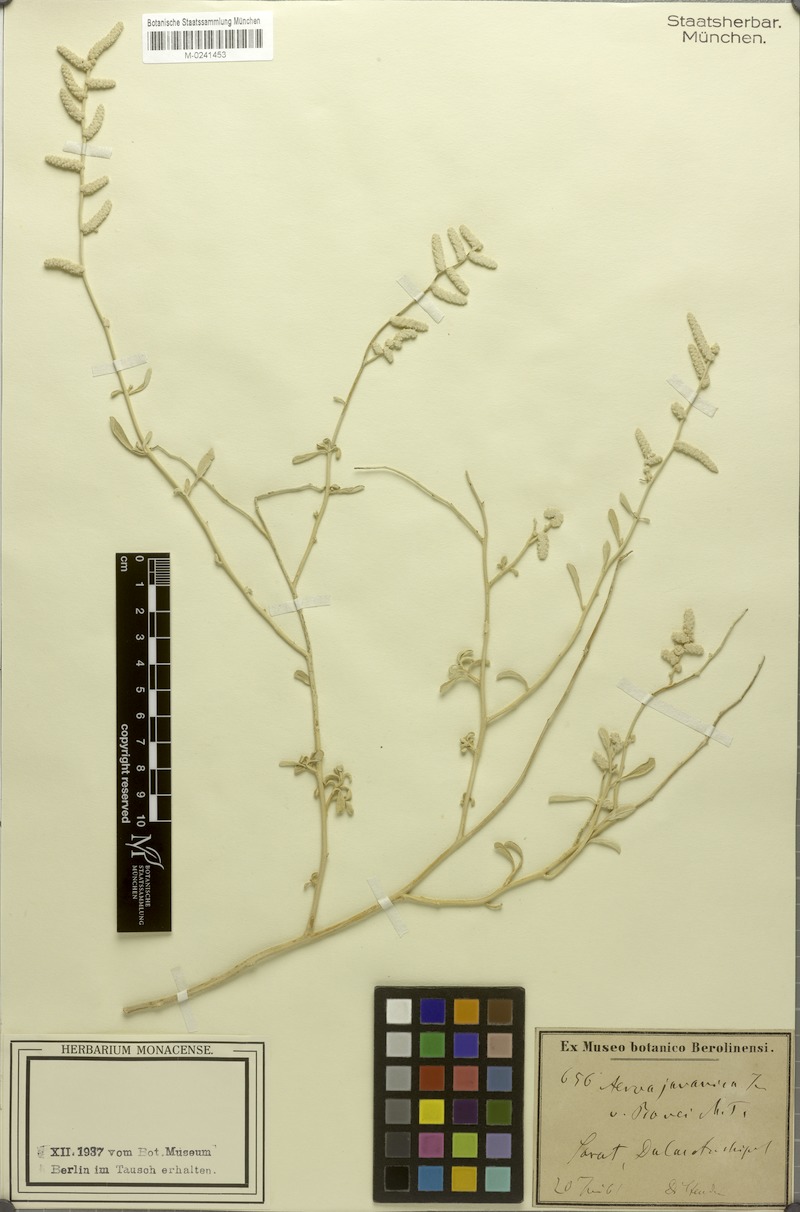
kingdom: Plantae
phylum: Tracheophyta
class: Magnoliopsida
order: Caryophyllales
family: Amaranthaceae
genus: Aerva
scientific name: Aerva javanica
